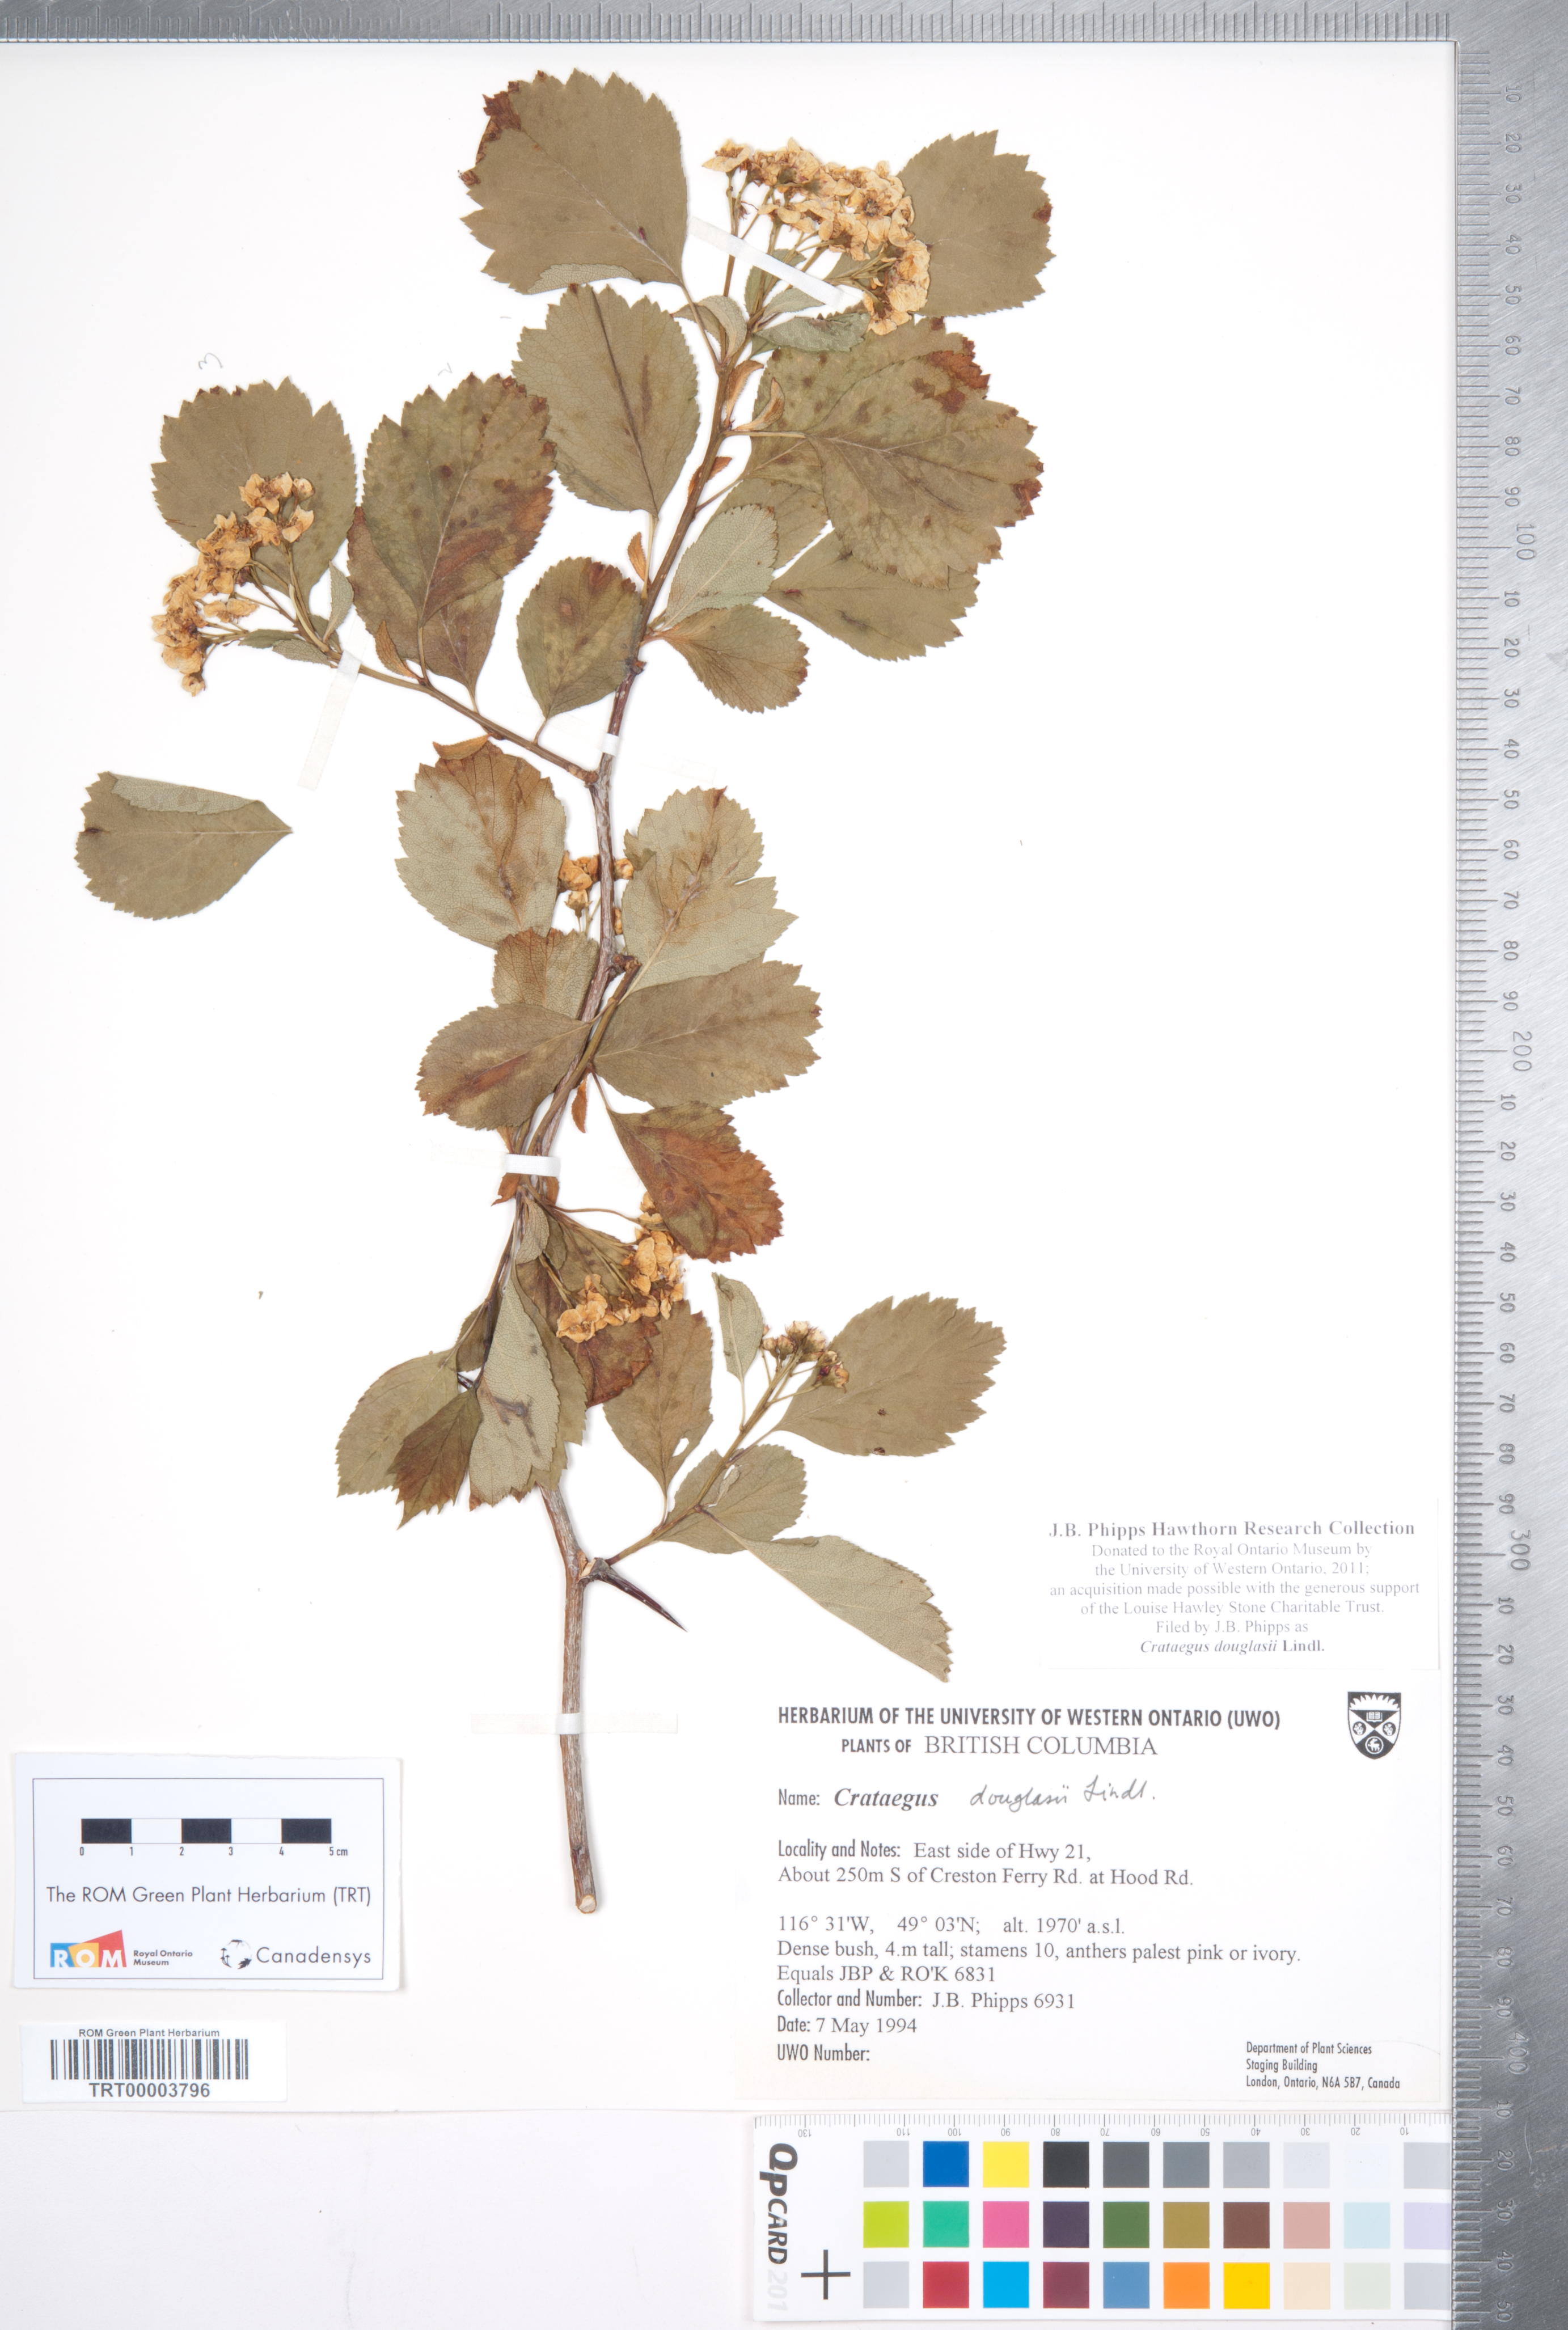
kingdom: Plantae
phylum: Tracheophyta
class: Magnoliopsida
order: Rosales
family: Rosaceae
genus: Crataegus
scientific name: Crataegus douglasii
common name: Black hawthorn
